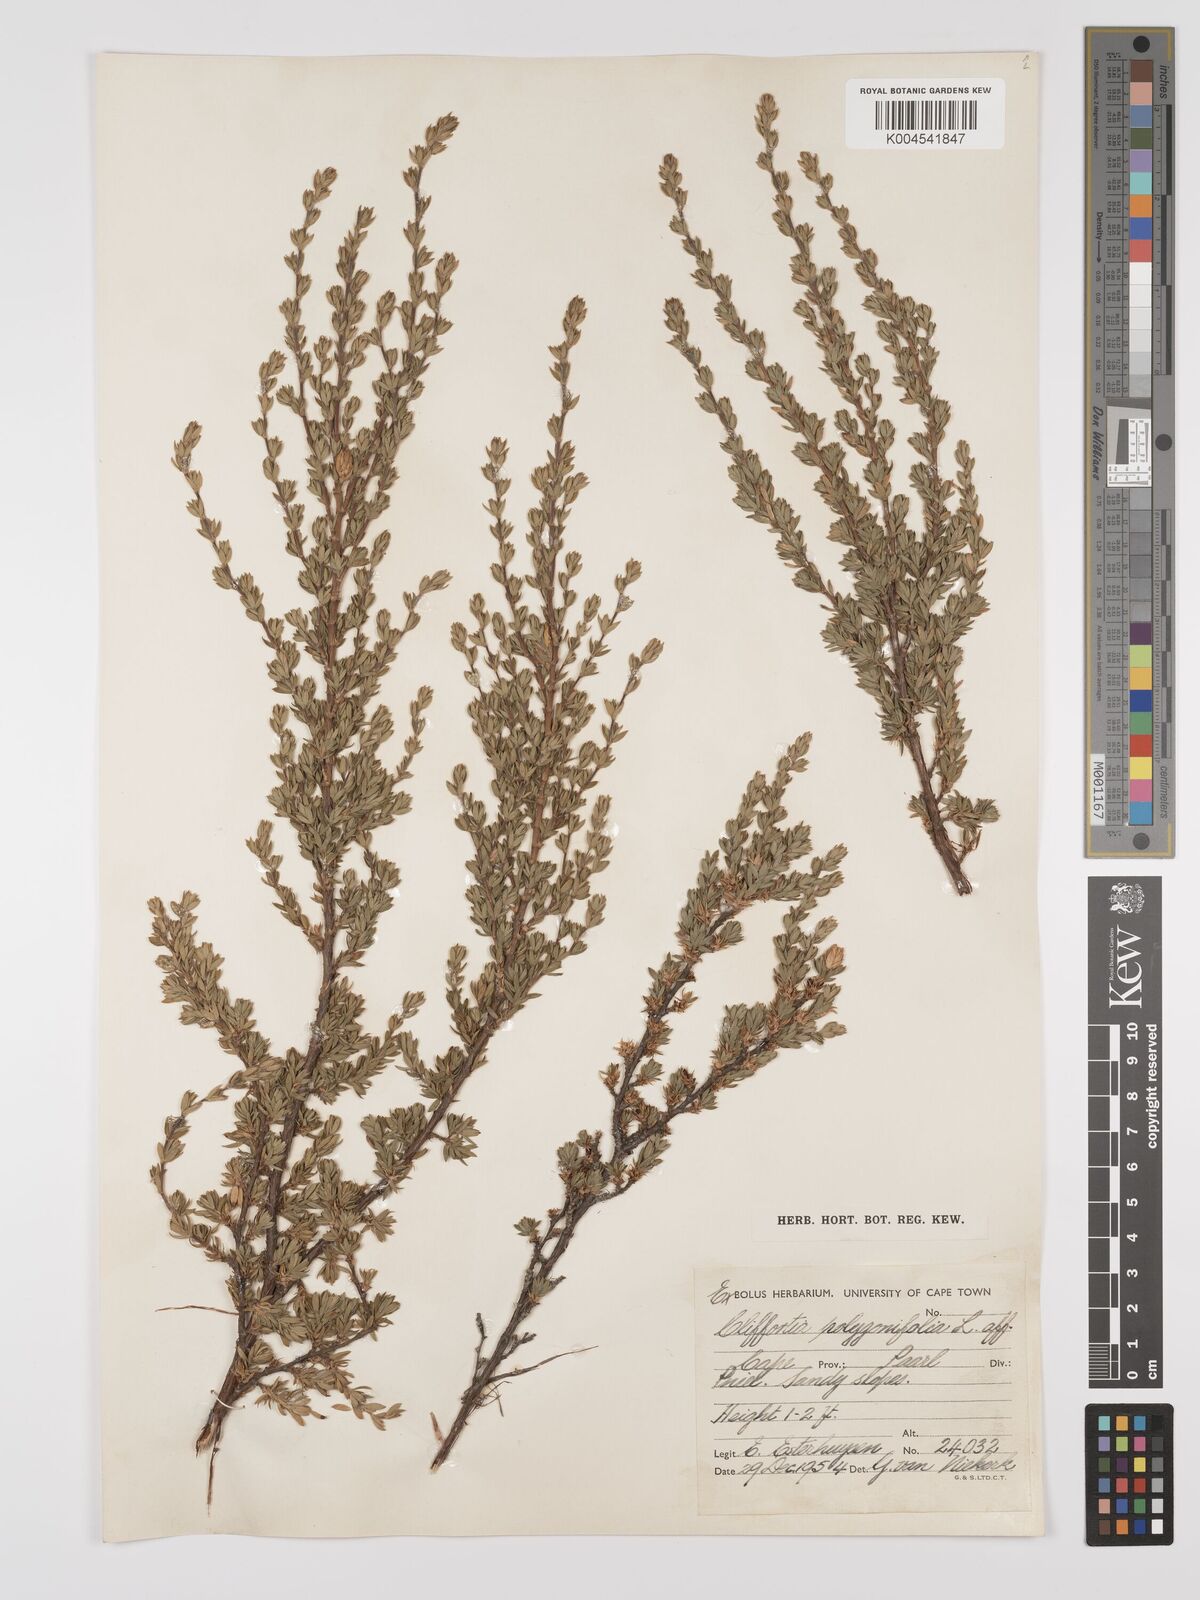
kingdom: Plantae
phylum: Tracheophyta
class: Magnoliopsida
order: Rosales
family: Rosaceae
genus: Cliffortia
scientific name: Cliffortia polygonifolia
